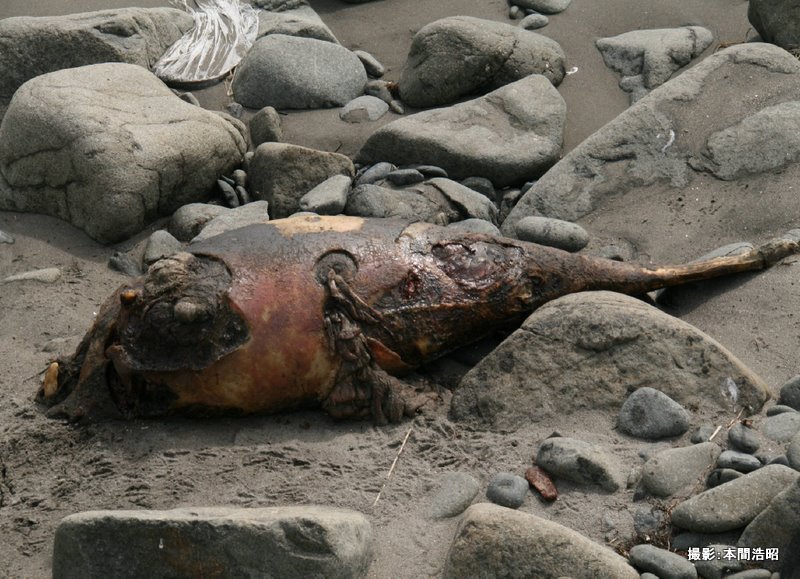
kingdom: Animalia
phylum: Chordata
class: Mammalia
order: Cetacea
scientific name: Cetacea
